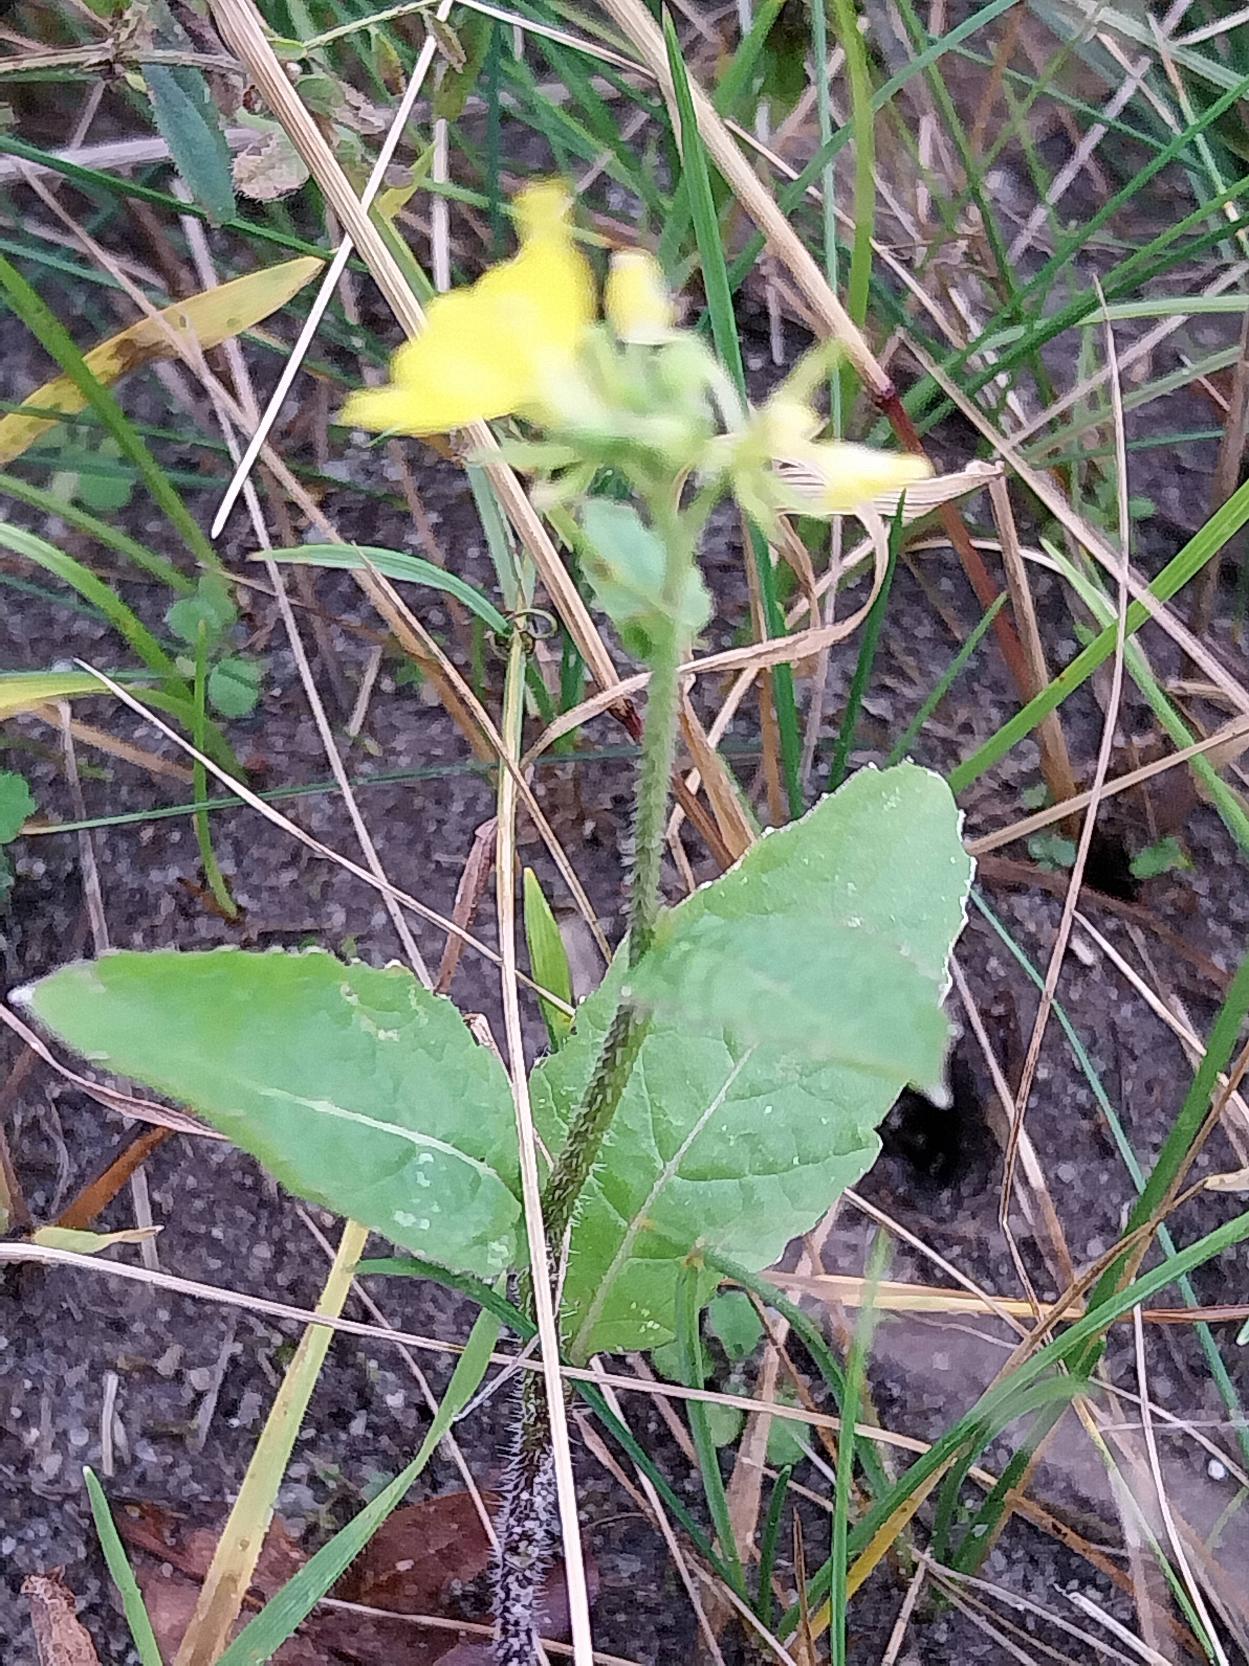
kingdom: Plantae
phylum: Tracheophyta
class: Magnoliopsida
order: Brassicales
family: Brassicaceae
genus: Sinapis
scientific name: Sinapis arvensis
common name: Ager-sennep
